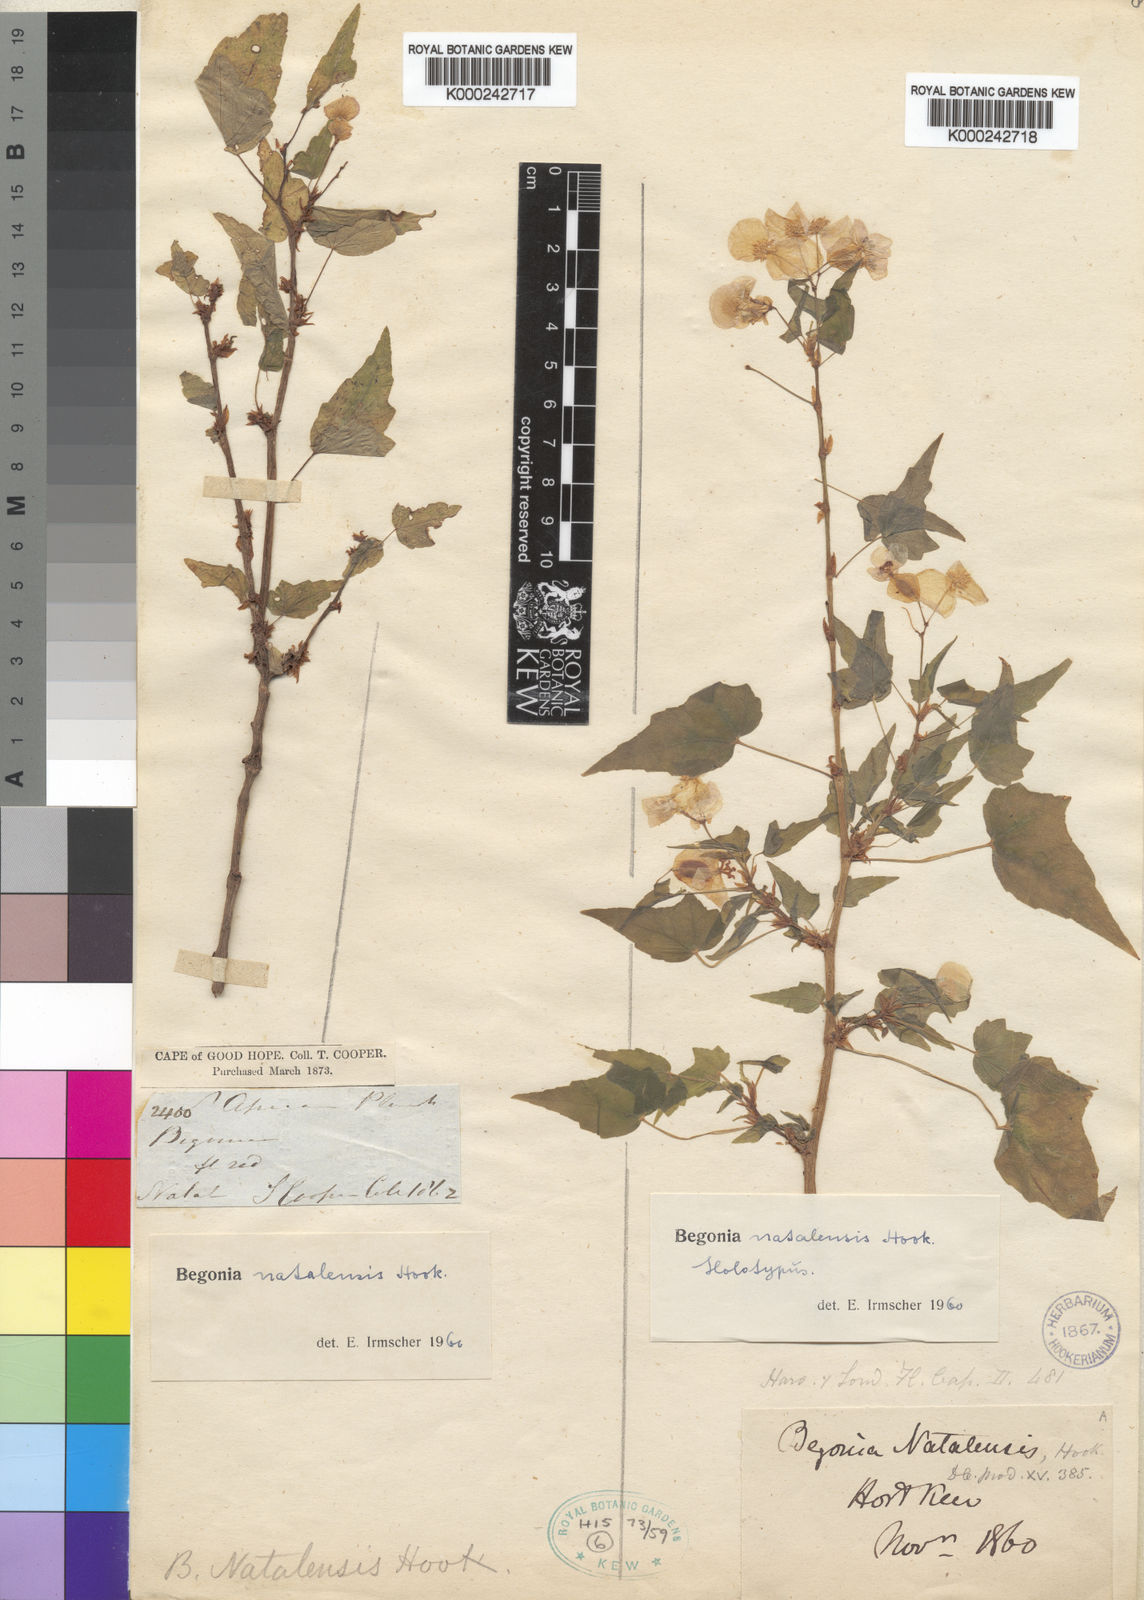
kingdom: Plantae
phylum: Tracheophyta
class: Magnoliopsida
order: Cucurbitales
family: Begoniaceae
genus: Begonia
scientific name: Begonia dregei
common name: Grape-leaf begonia
